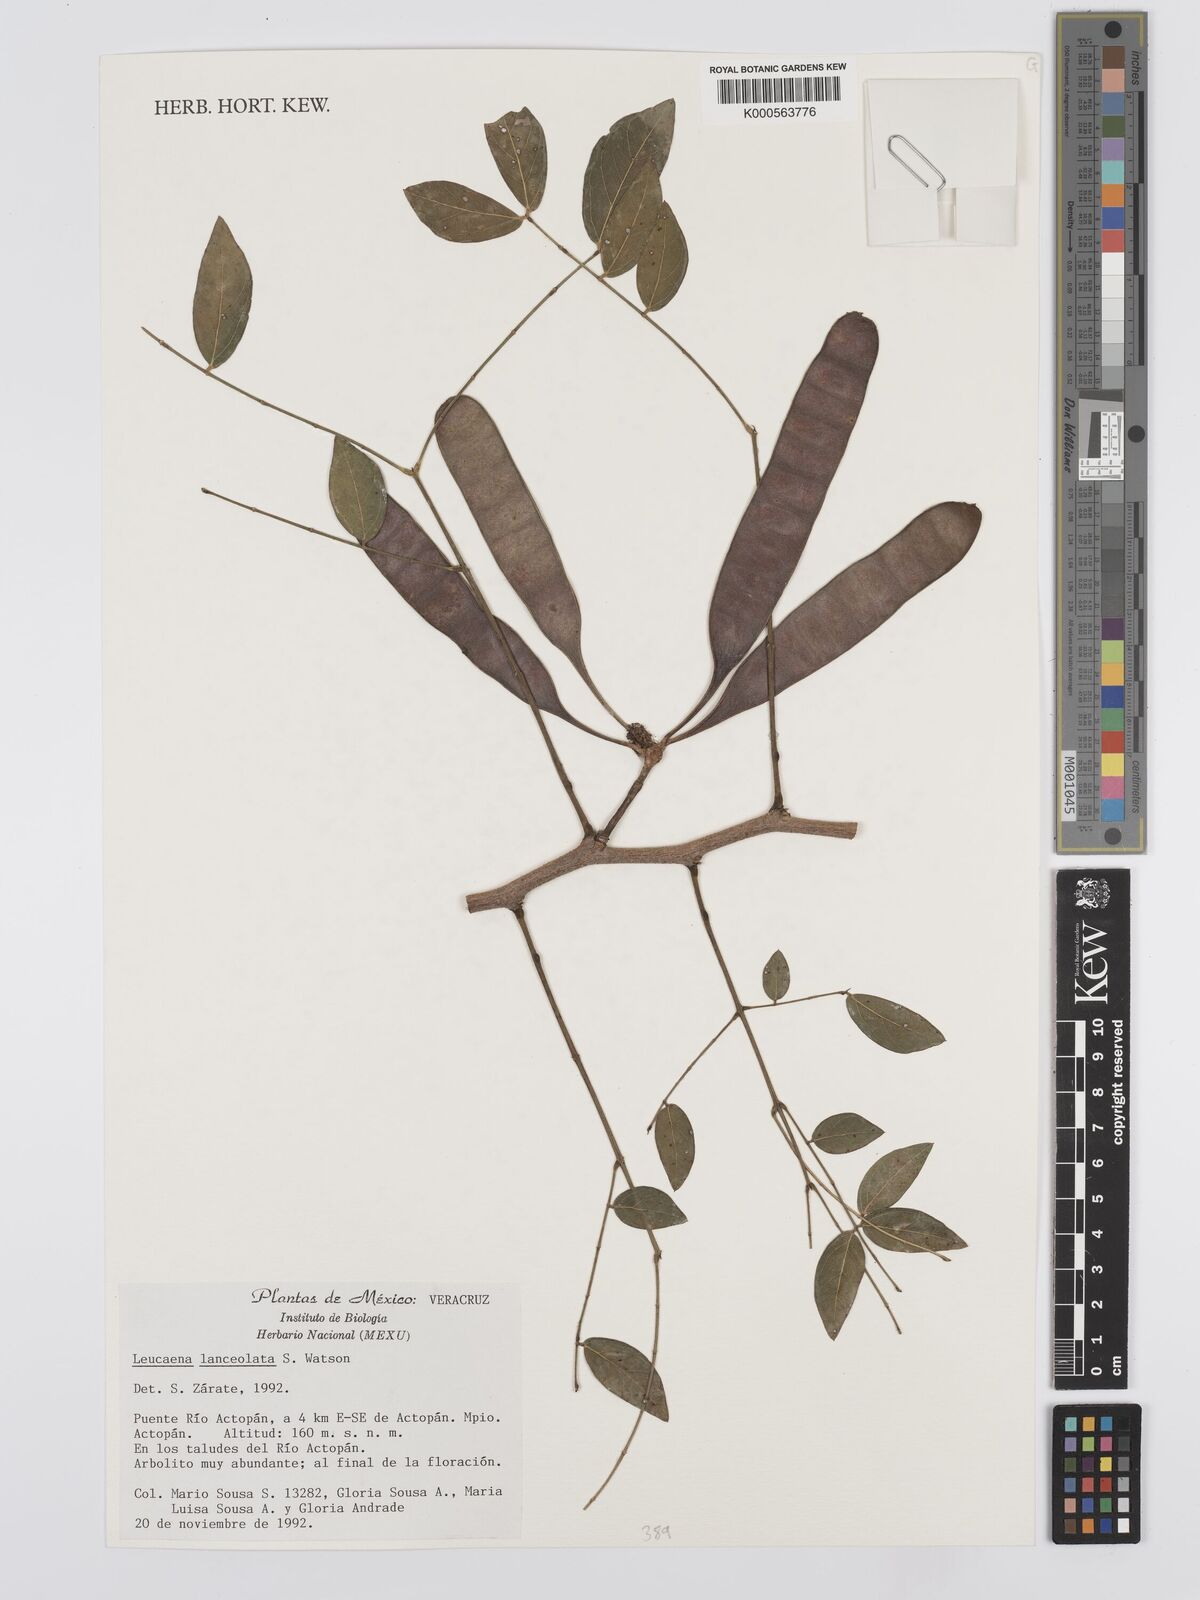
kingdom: Plantae
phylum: Tracheophyta
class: Magnoliopsida
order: Fabales
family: Fabaceae
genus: Leucaena
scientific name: Leucaena lanceolata
